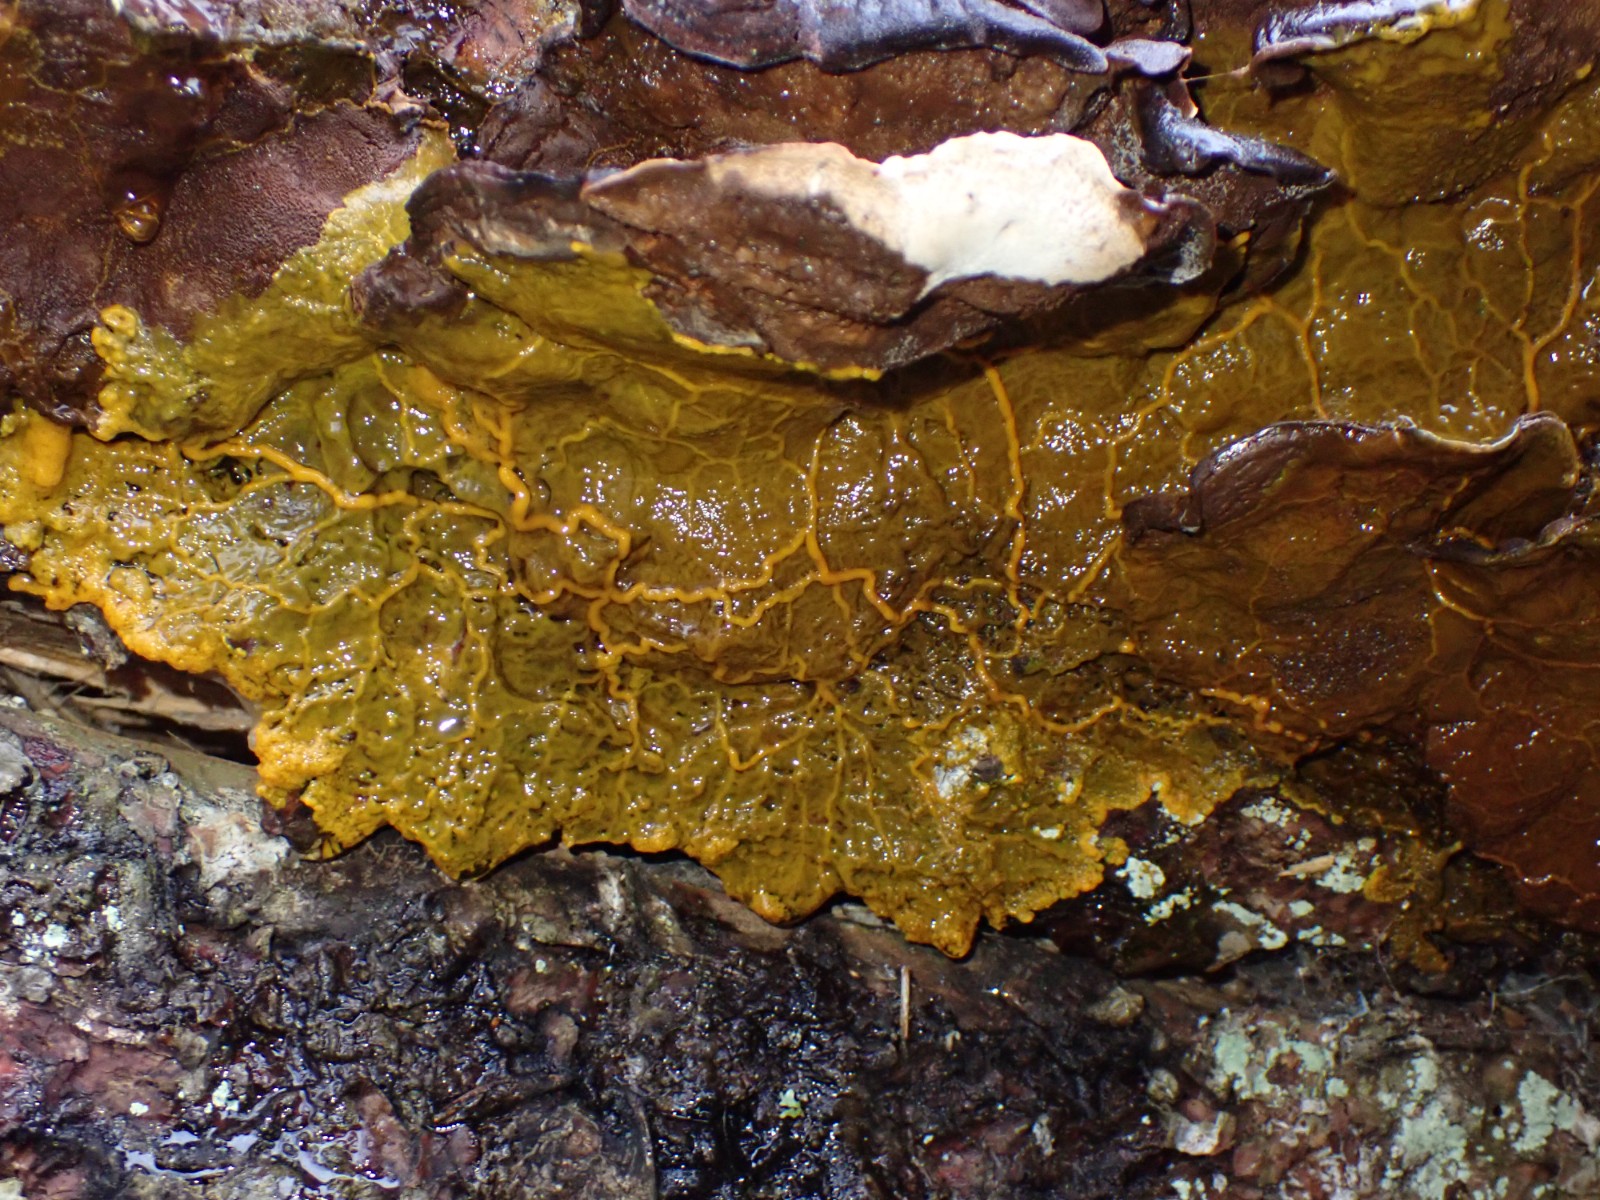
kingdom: Protozoa
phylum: Mycetozoa
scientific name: Mycetozoa
